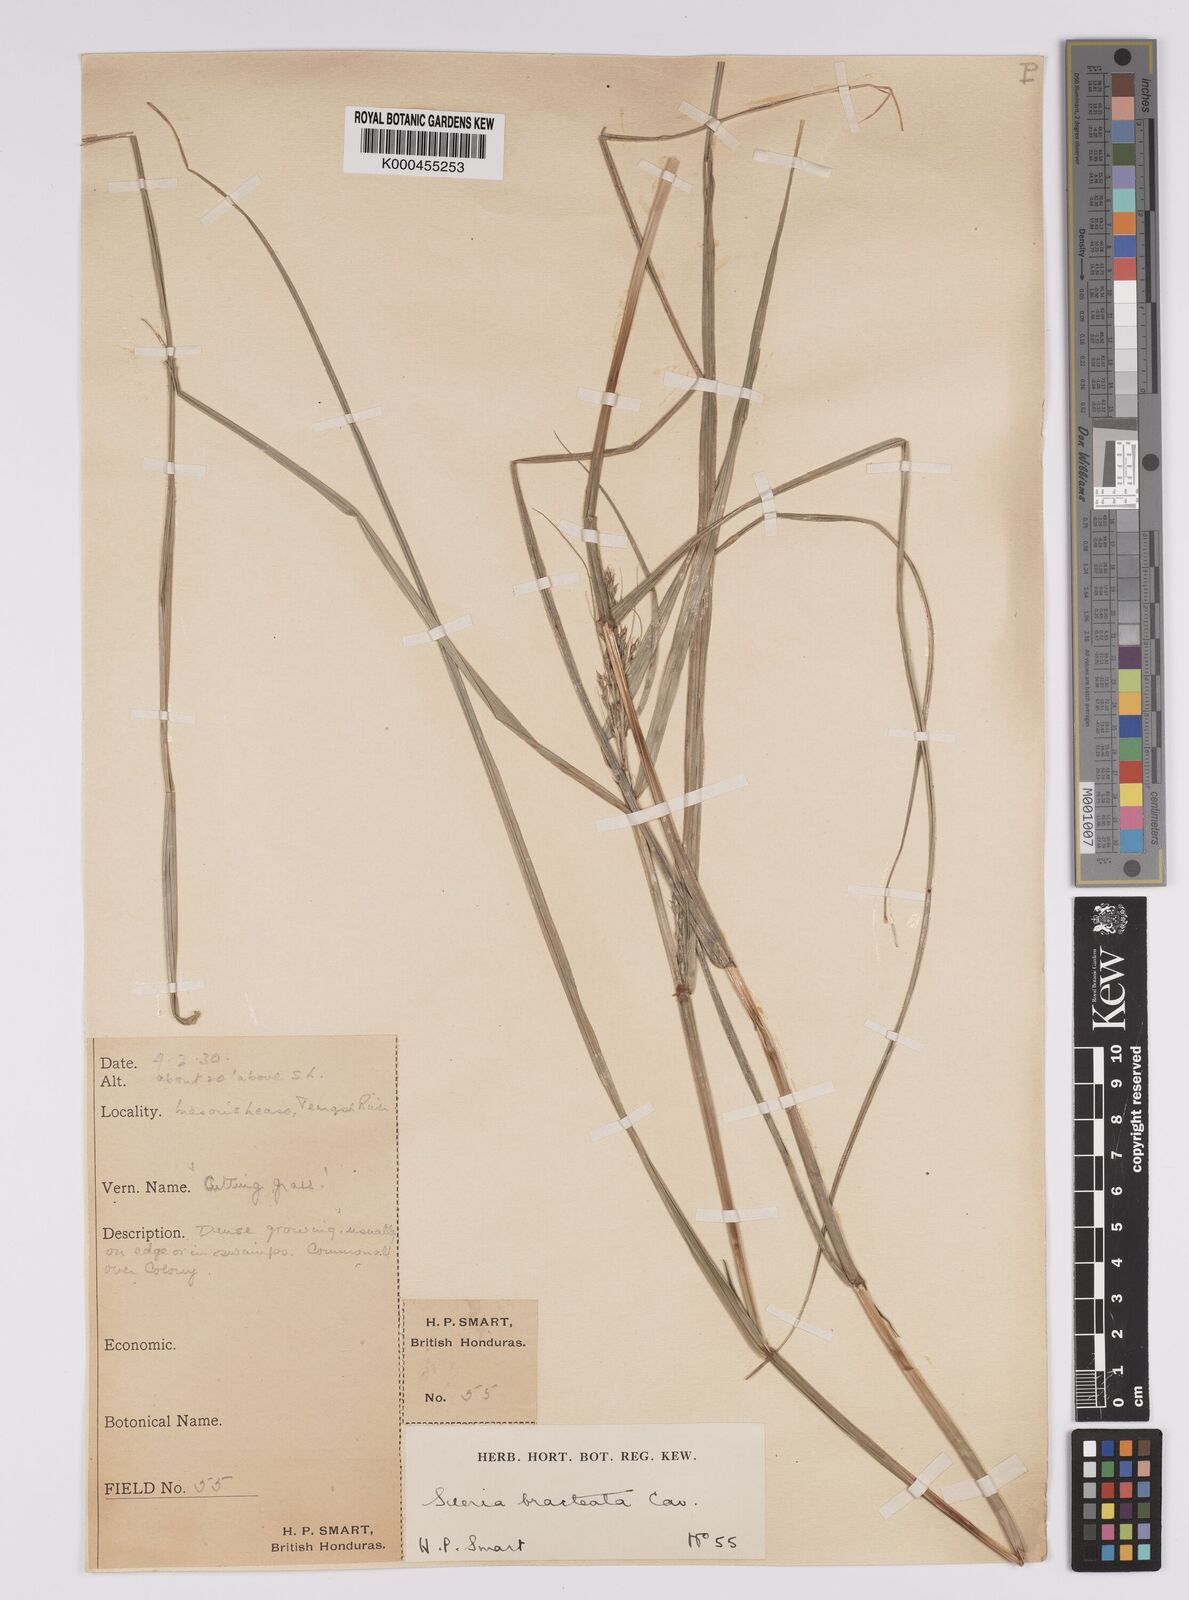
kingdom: Plantae
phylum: Tracheophyta
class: Liliopsida
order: Poales
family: Cyperaceae
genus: Scleria
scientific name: Scleria bracteata
